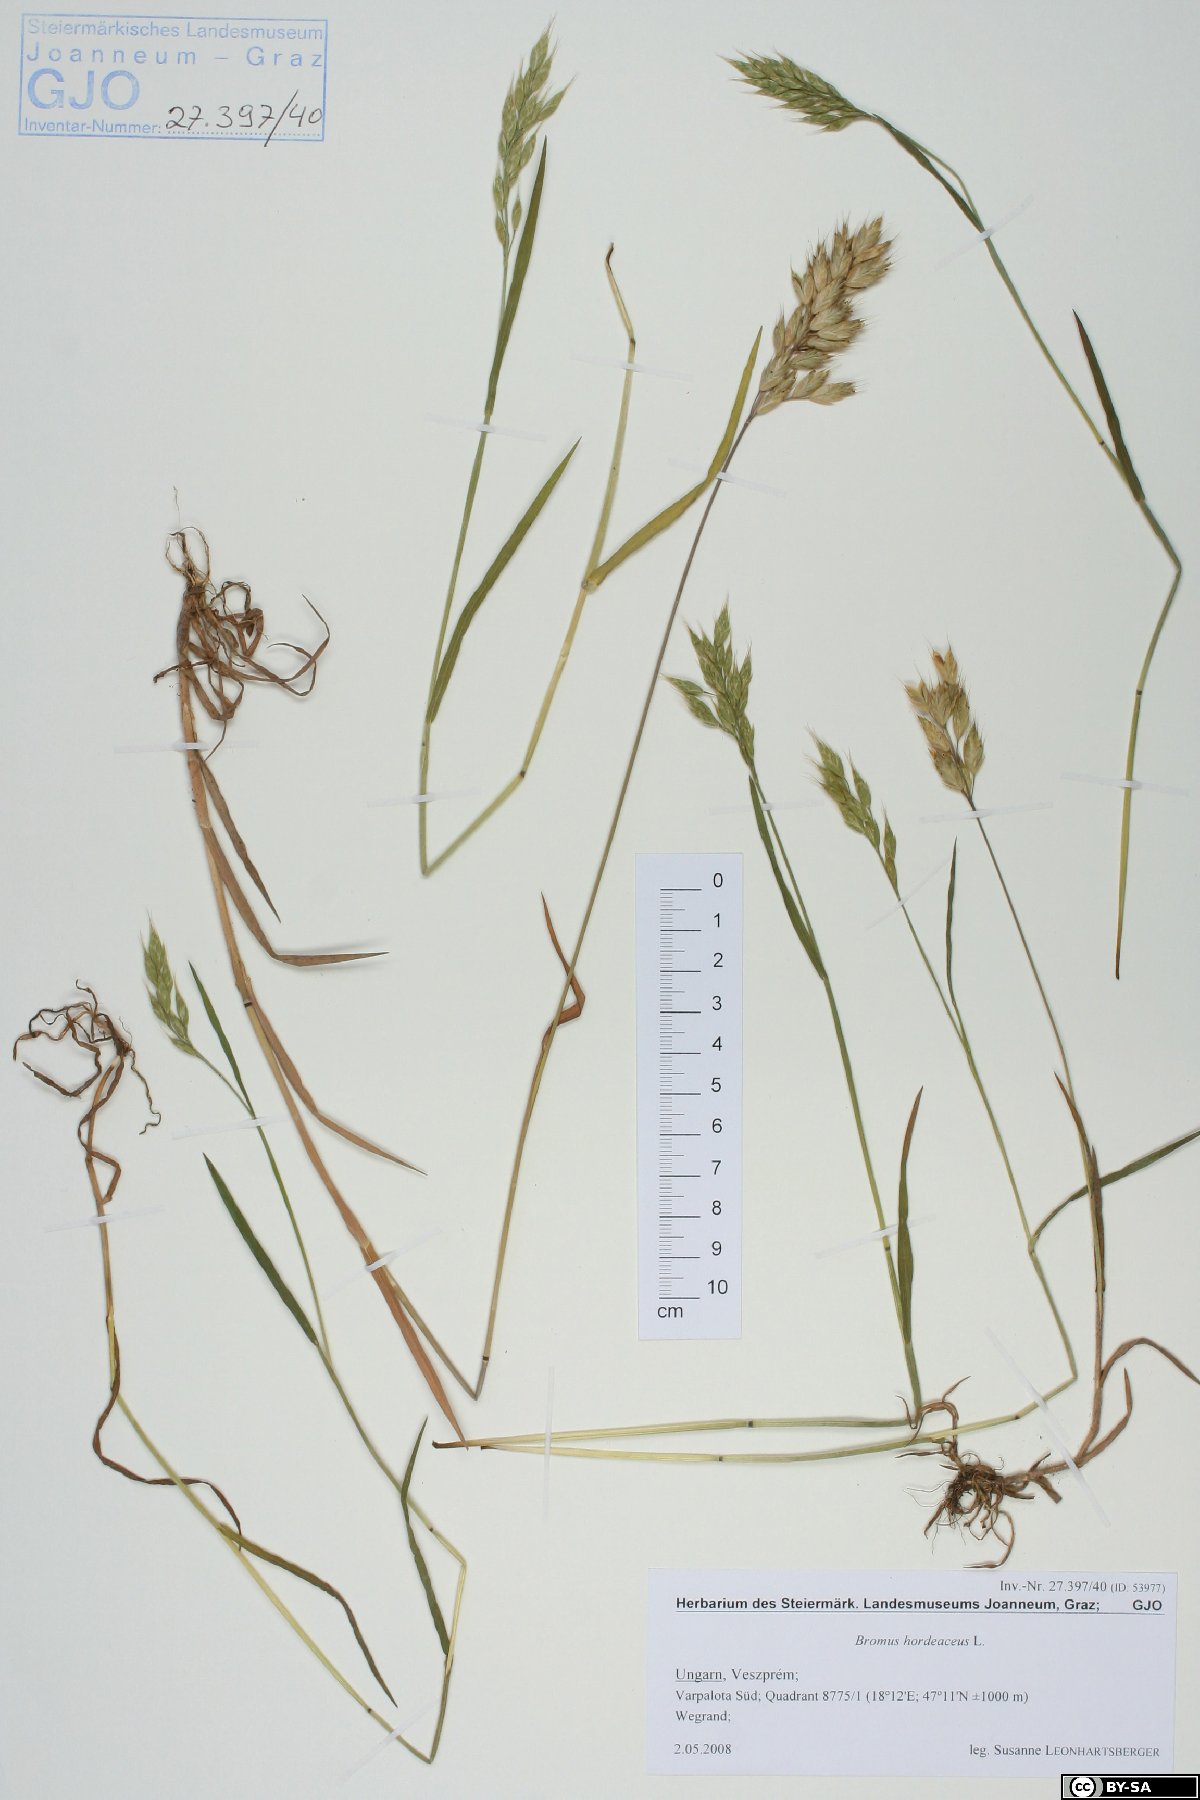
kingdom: Plantae
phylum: Tracheophyta
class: Liliopsida
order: Poales
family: Poaceae
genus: Bromus
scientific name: Bromus hordeaceus
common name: Soft brome
